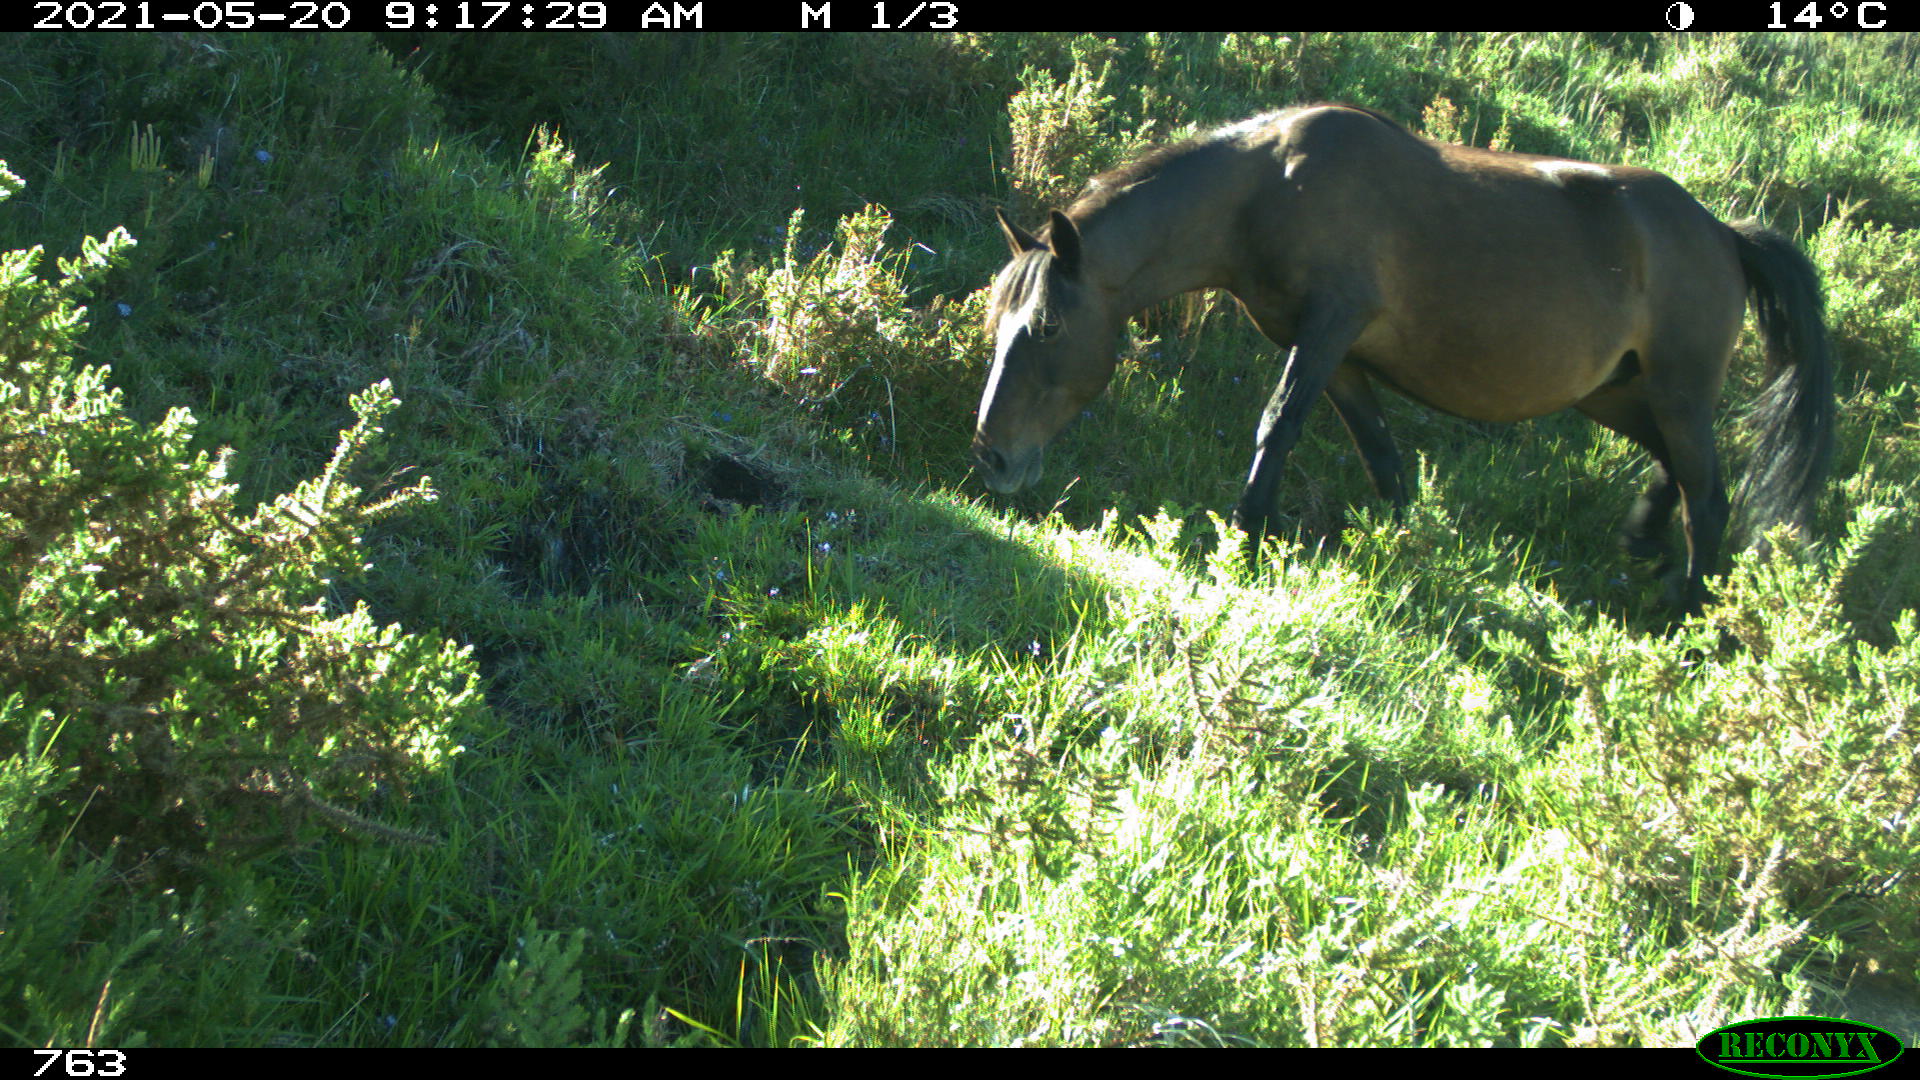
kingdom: Animalia
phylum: Chordata
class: Mammalia
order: Perissodactyla
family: Equidae
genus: Equus
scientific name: Equus caballus
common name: Horse
